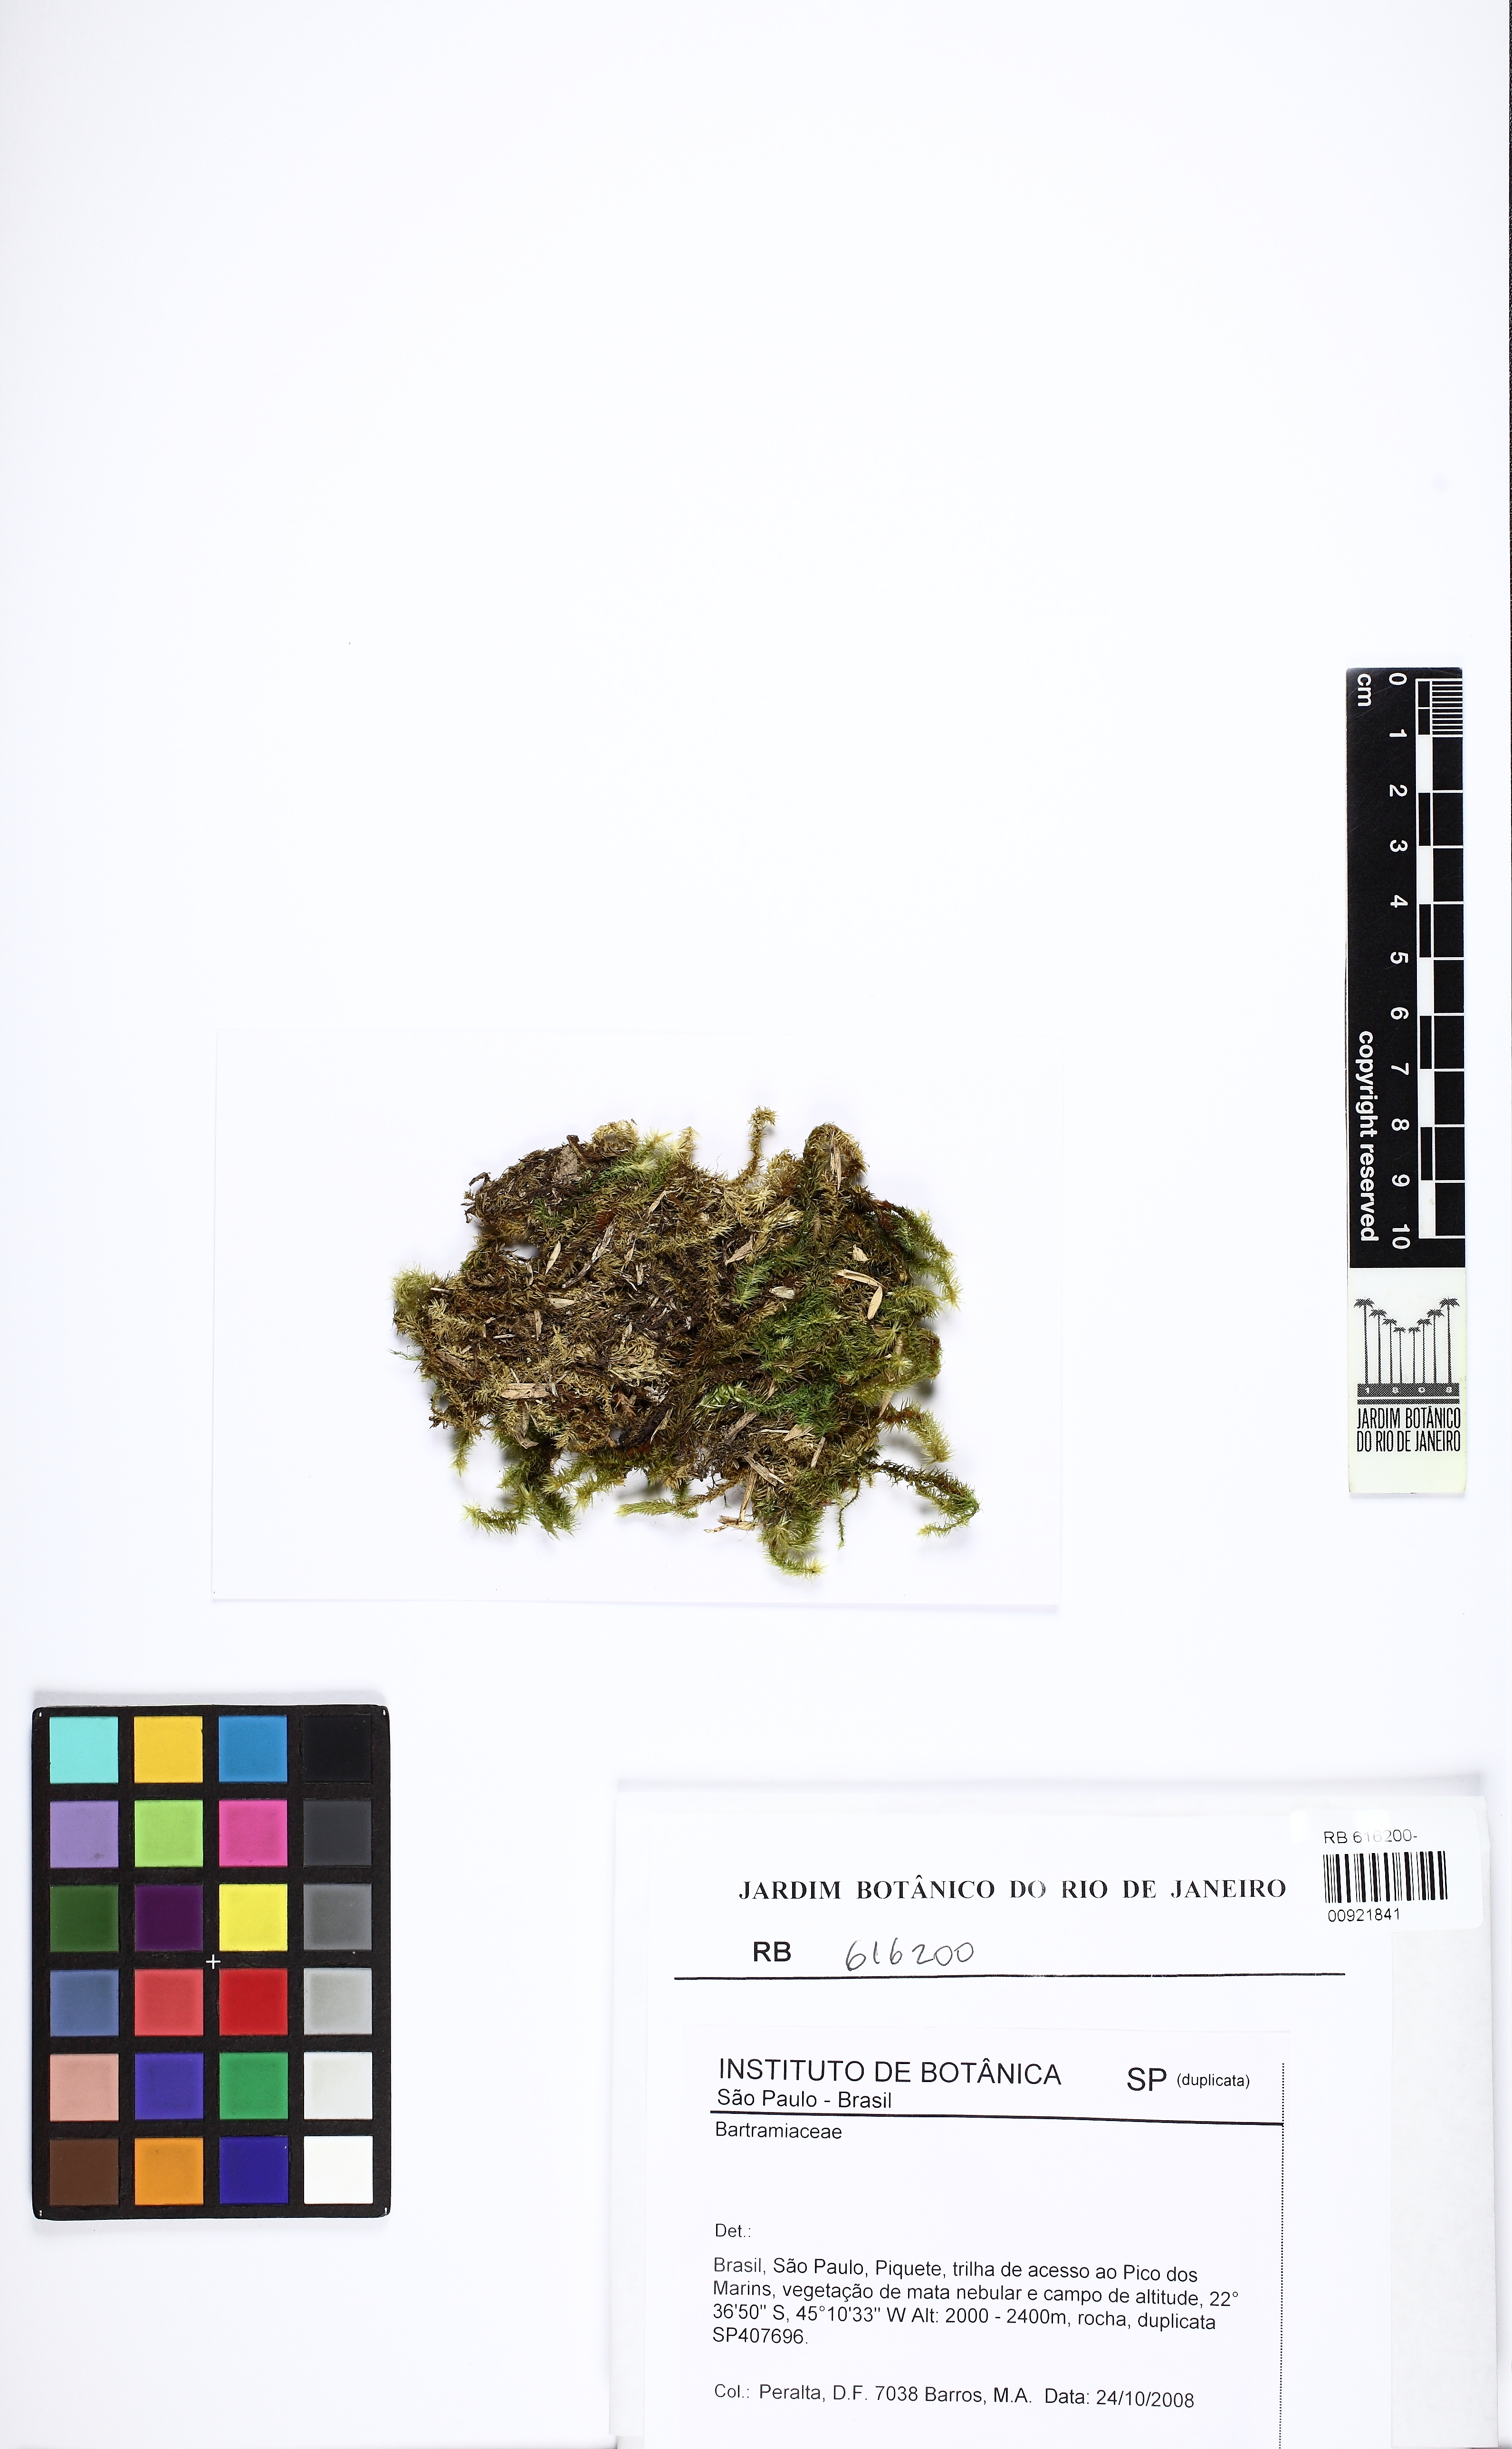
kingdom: Plantae
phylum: Bryophyta
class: Bryopsida
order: Bartramiales
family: Bartramiaceae
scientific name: Bartramiaceae
